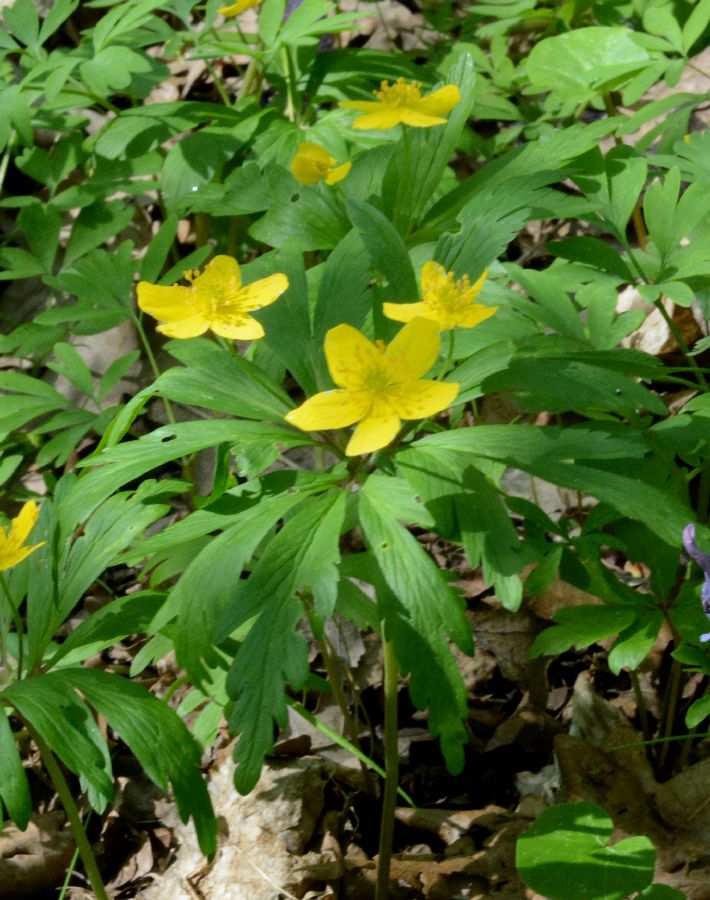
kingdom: Plantae
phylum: Tracheophyta
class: Magnoliopsida
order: Ranunculales
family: Ranunculaceae
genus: Anemone
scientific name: Anemone ranunculoides
